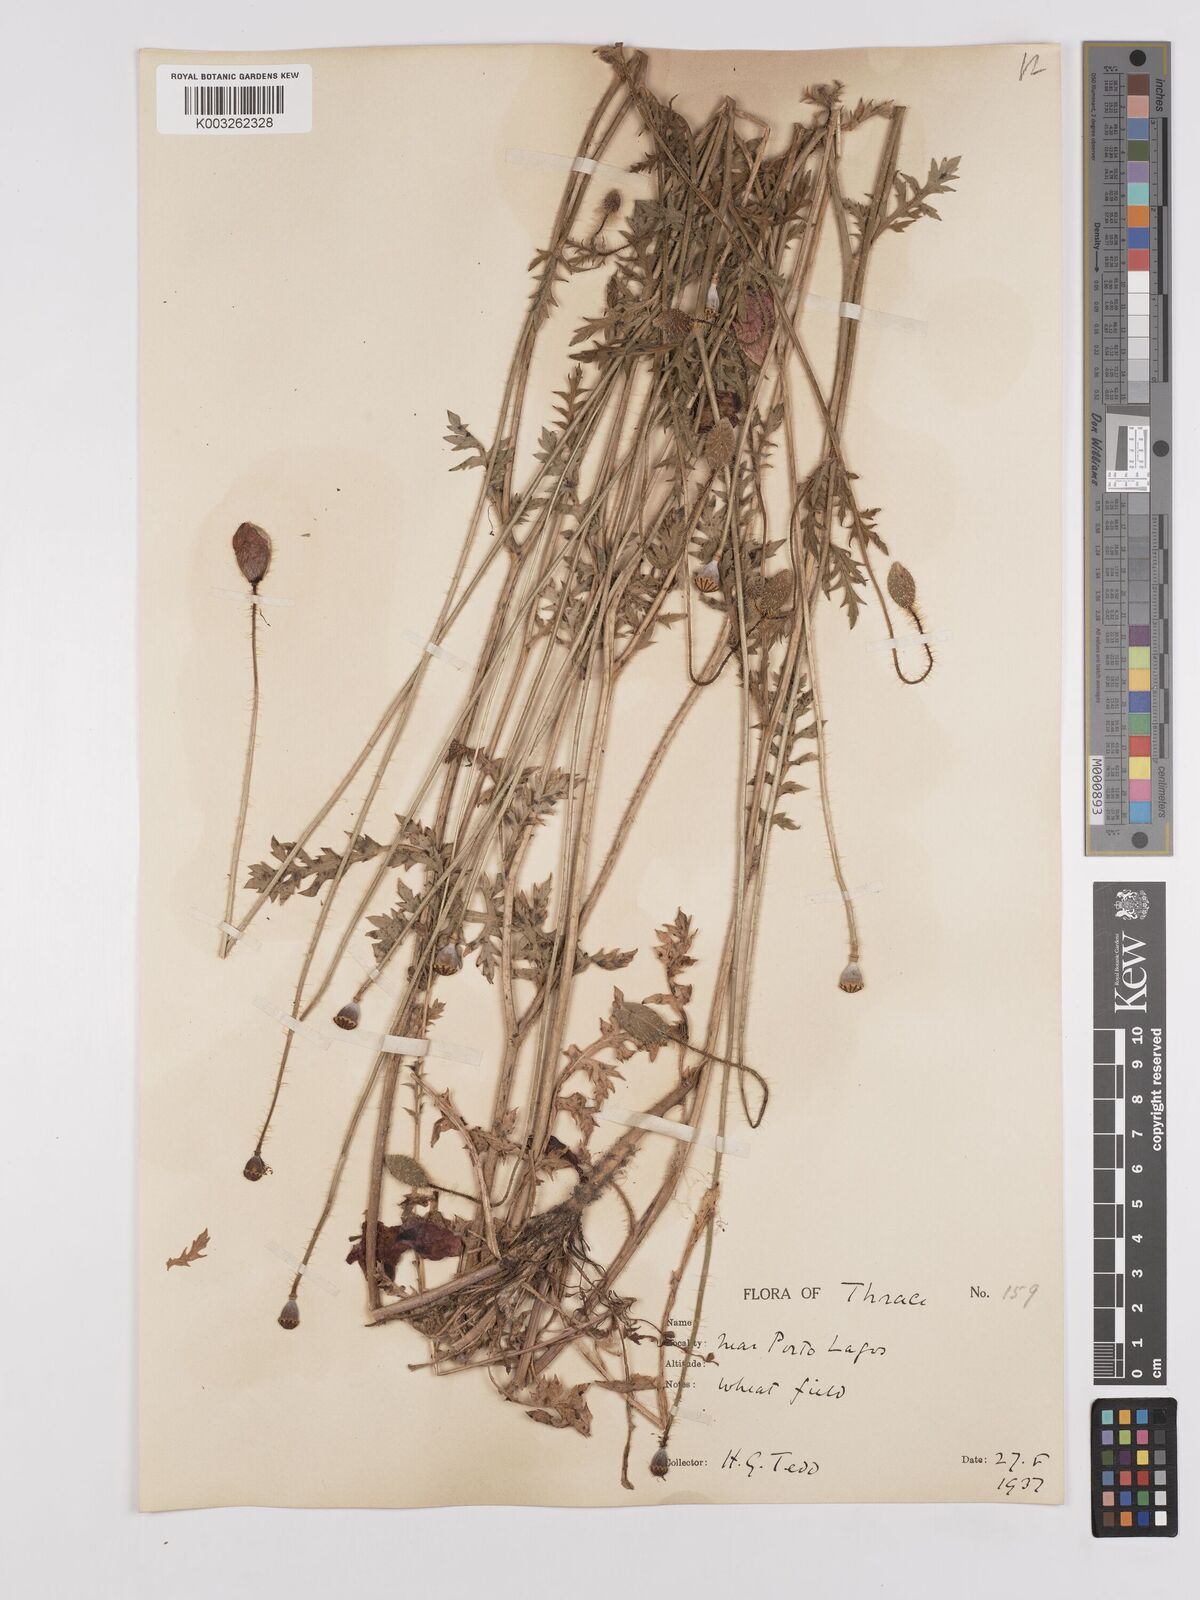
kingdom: Plantae
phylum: Tracheophyta
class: Magnoliopsida
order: Ranunculales
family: Papaveraceae
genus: Papaver
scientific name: Papaver rhoeas
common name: Corn poppy
